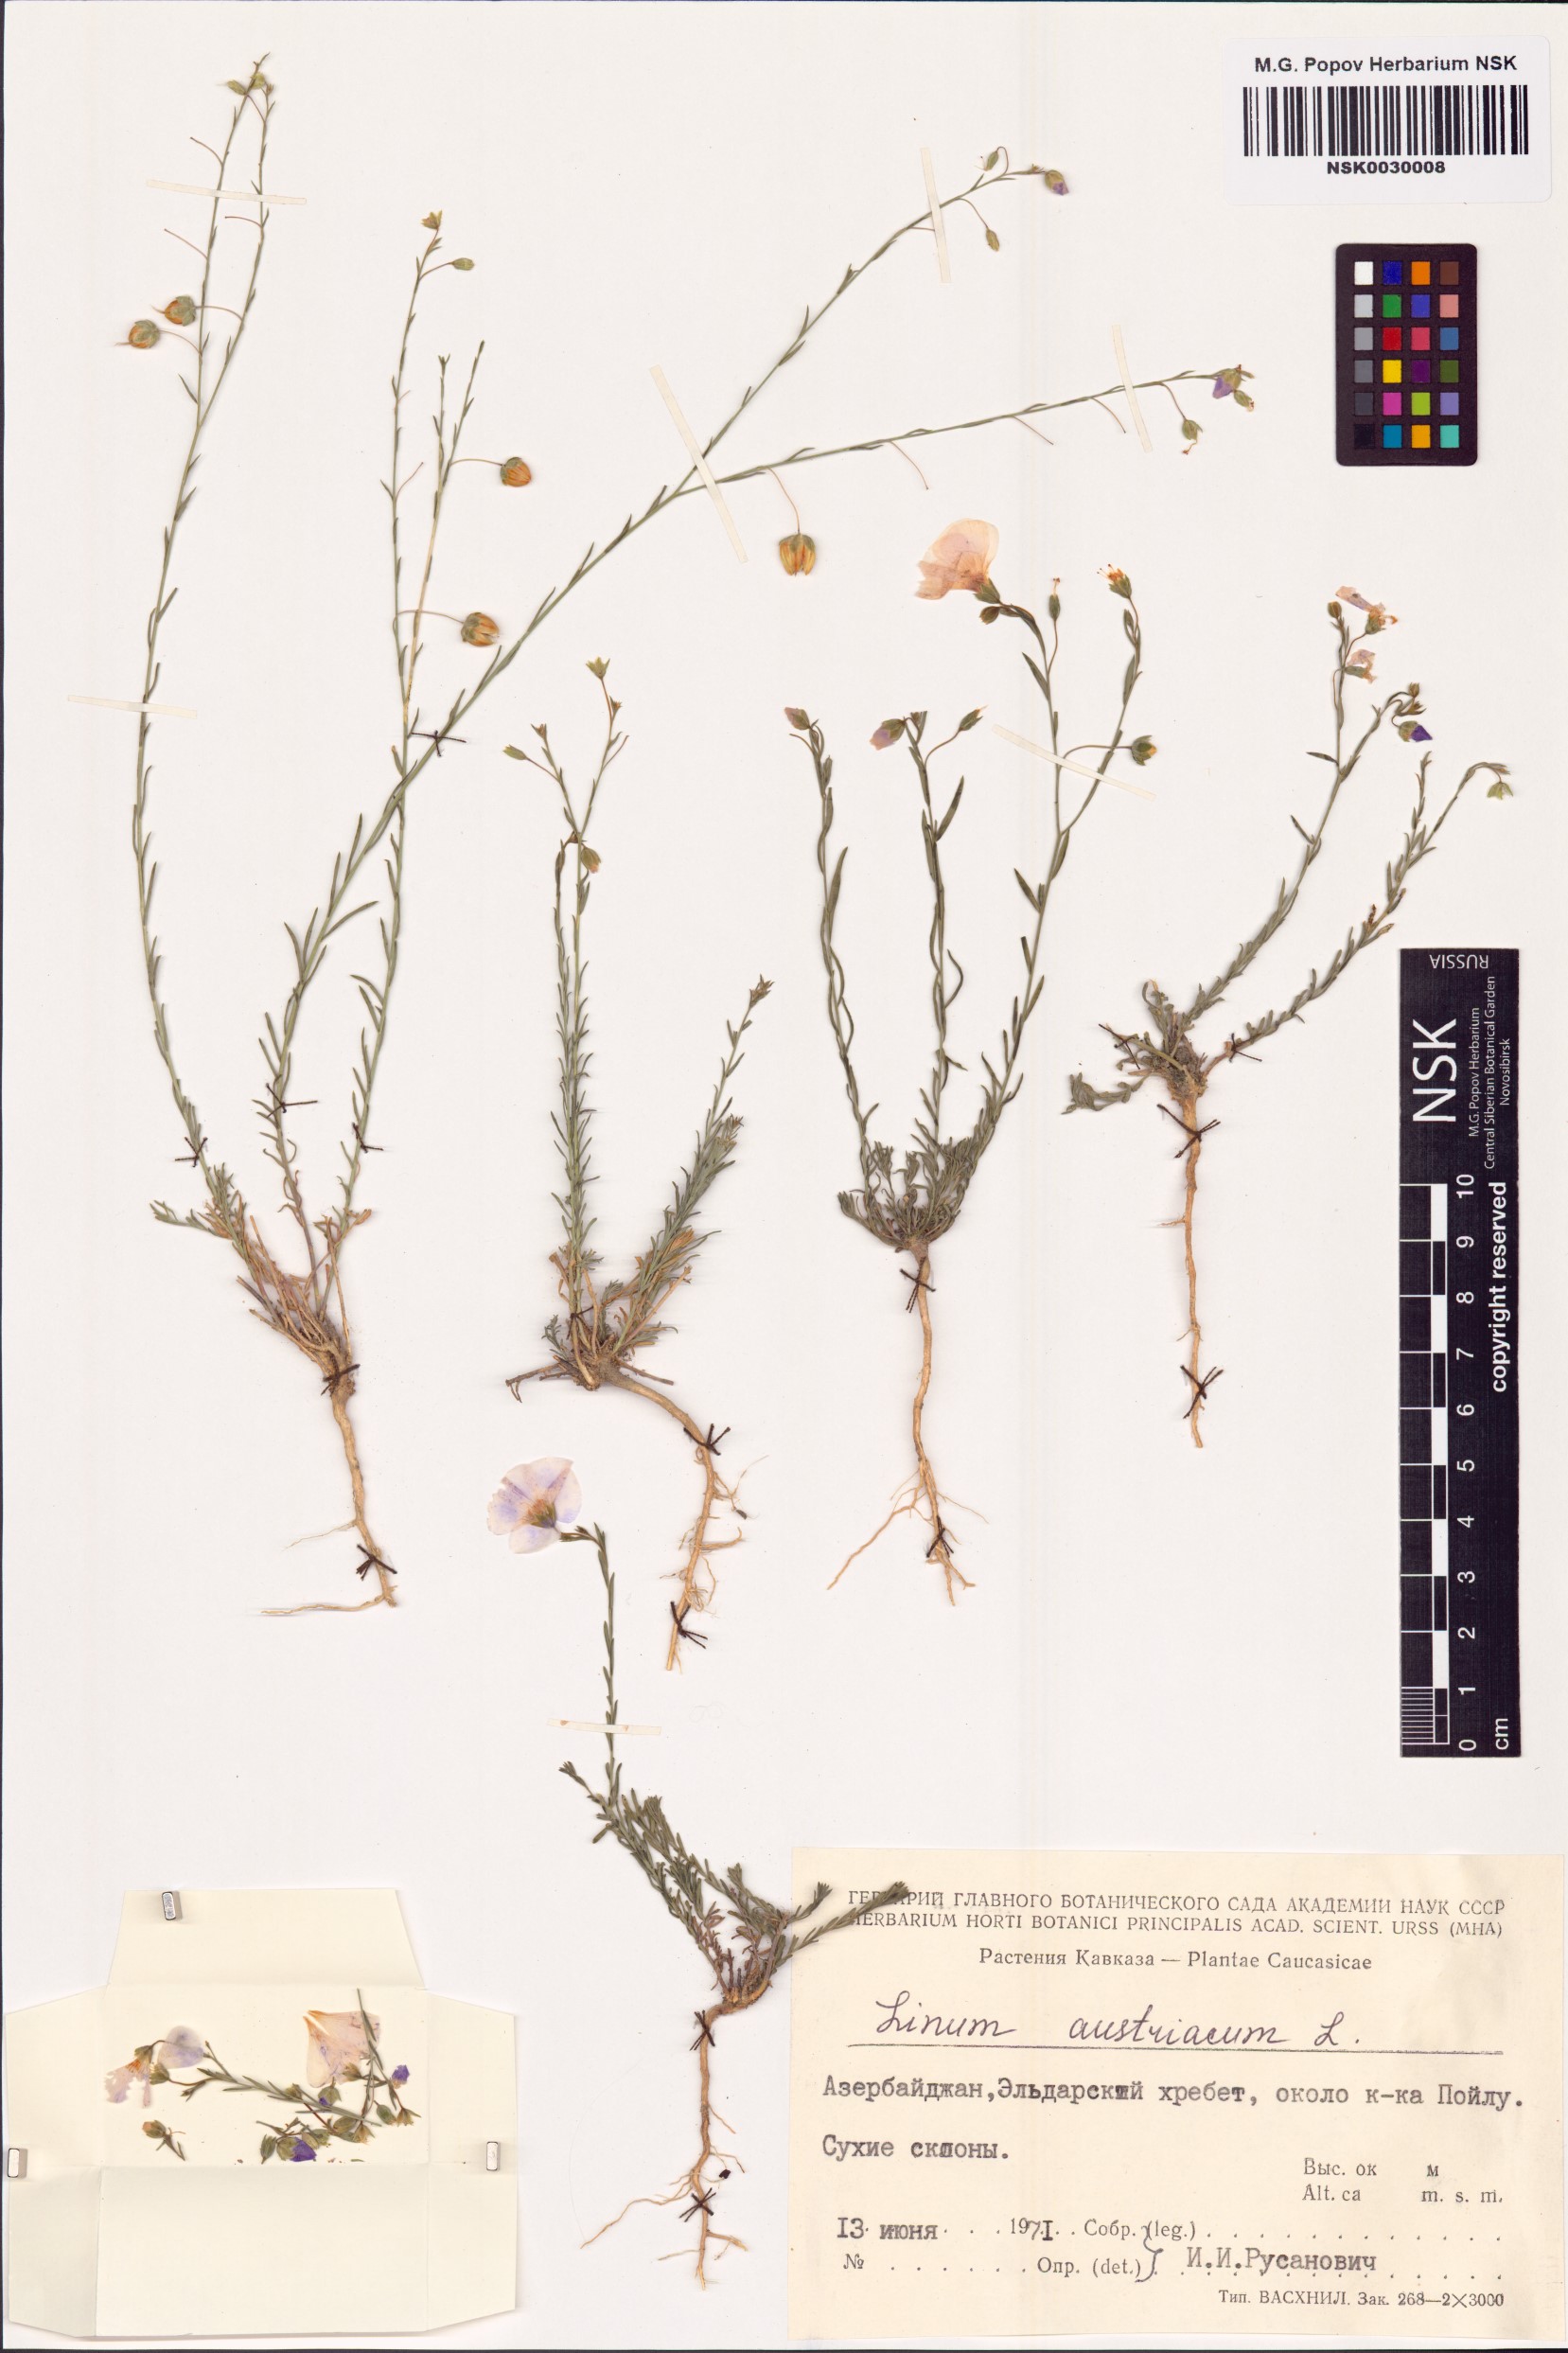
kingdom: Plantae
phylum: Tracheophyta
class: Magnoliopsida
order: Malpighiales
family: Linaceae
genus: Linum
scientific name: Linum austriacum
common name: Austrian flax
